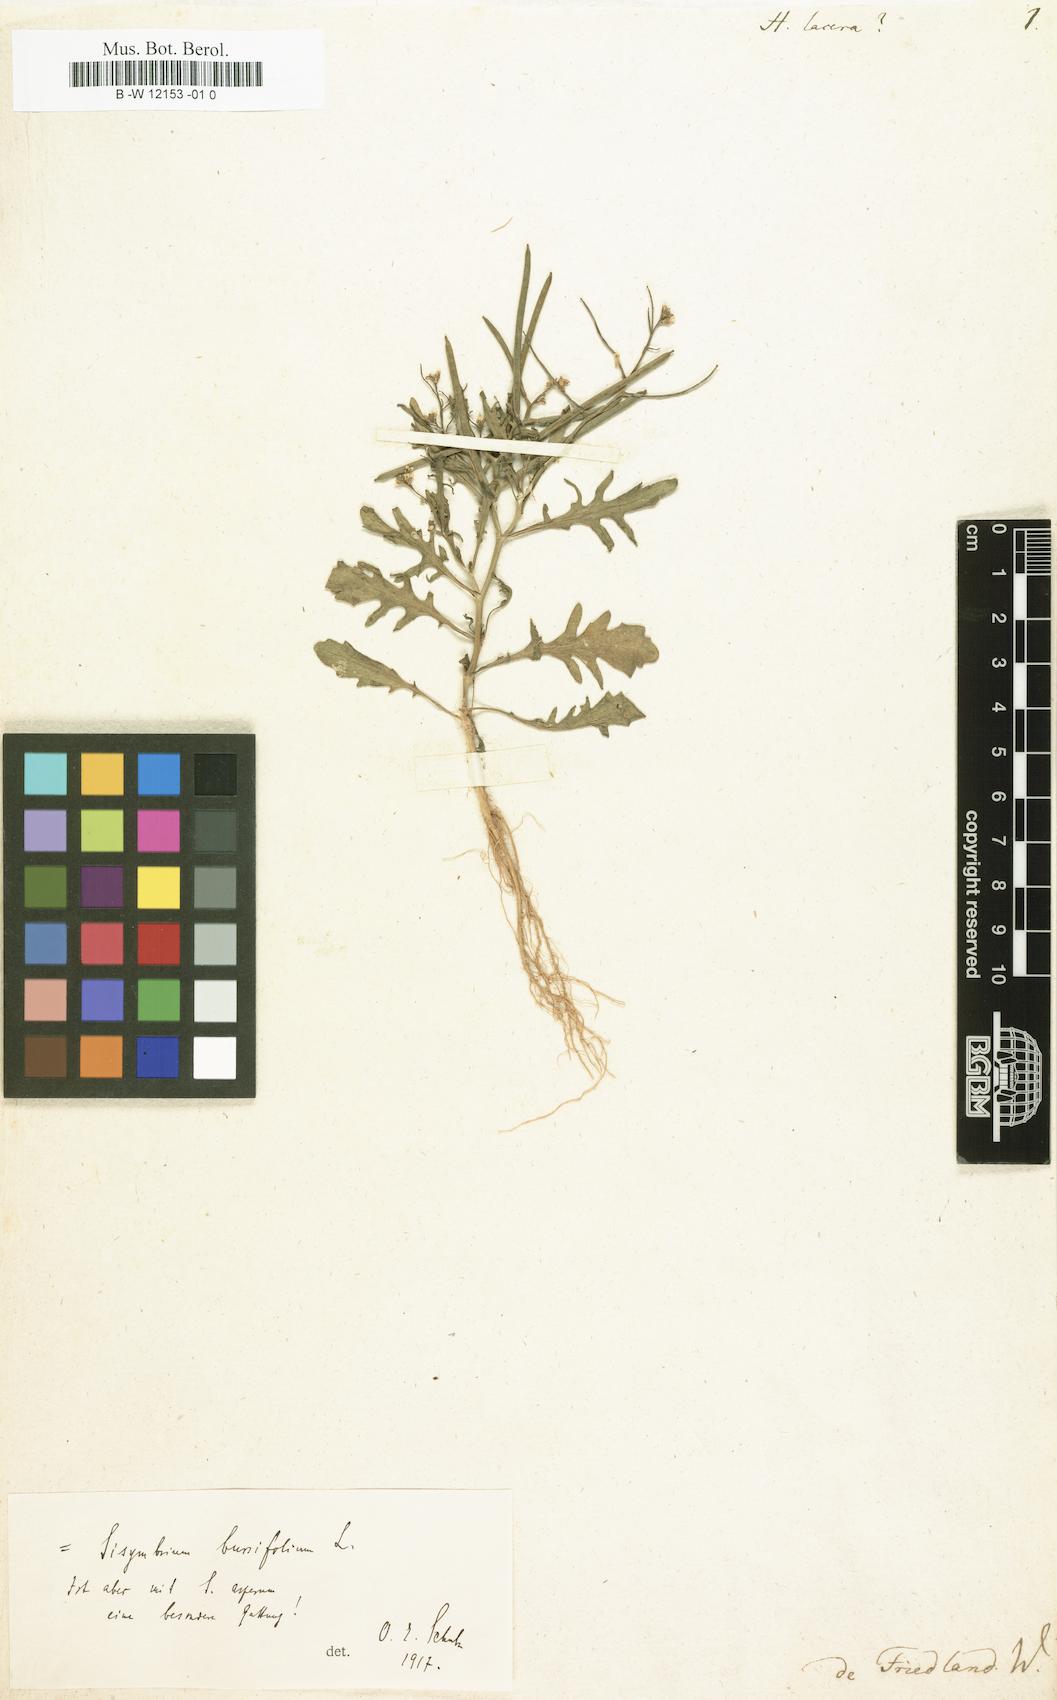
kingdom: Plantae
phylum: Tracheophyta
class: Magnoliopsida
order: Brassicales
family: Brassicaceae
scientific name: Brassicaceae
